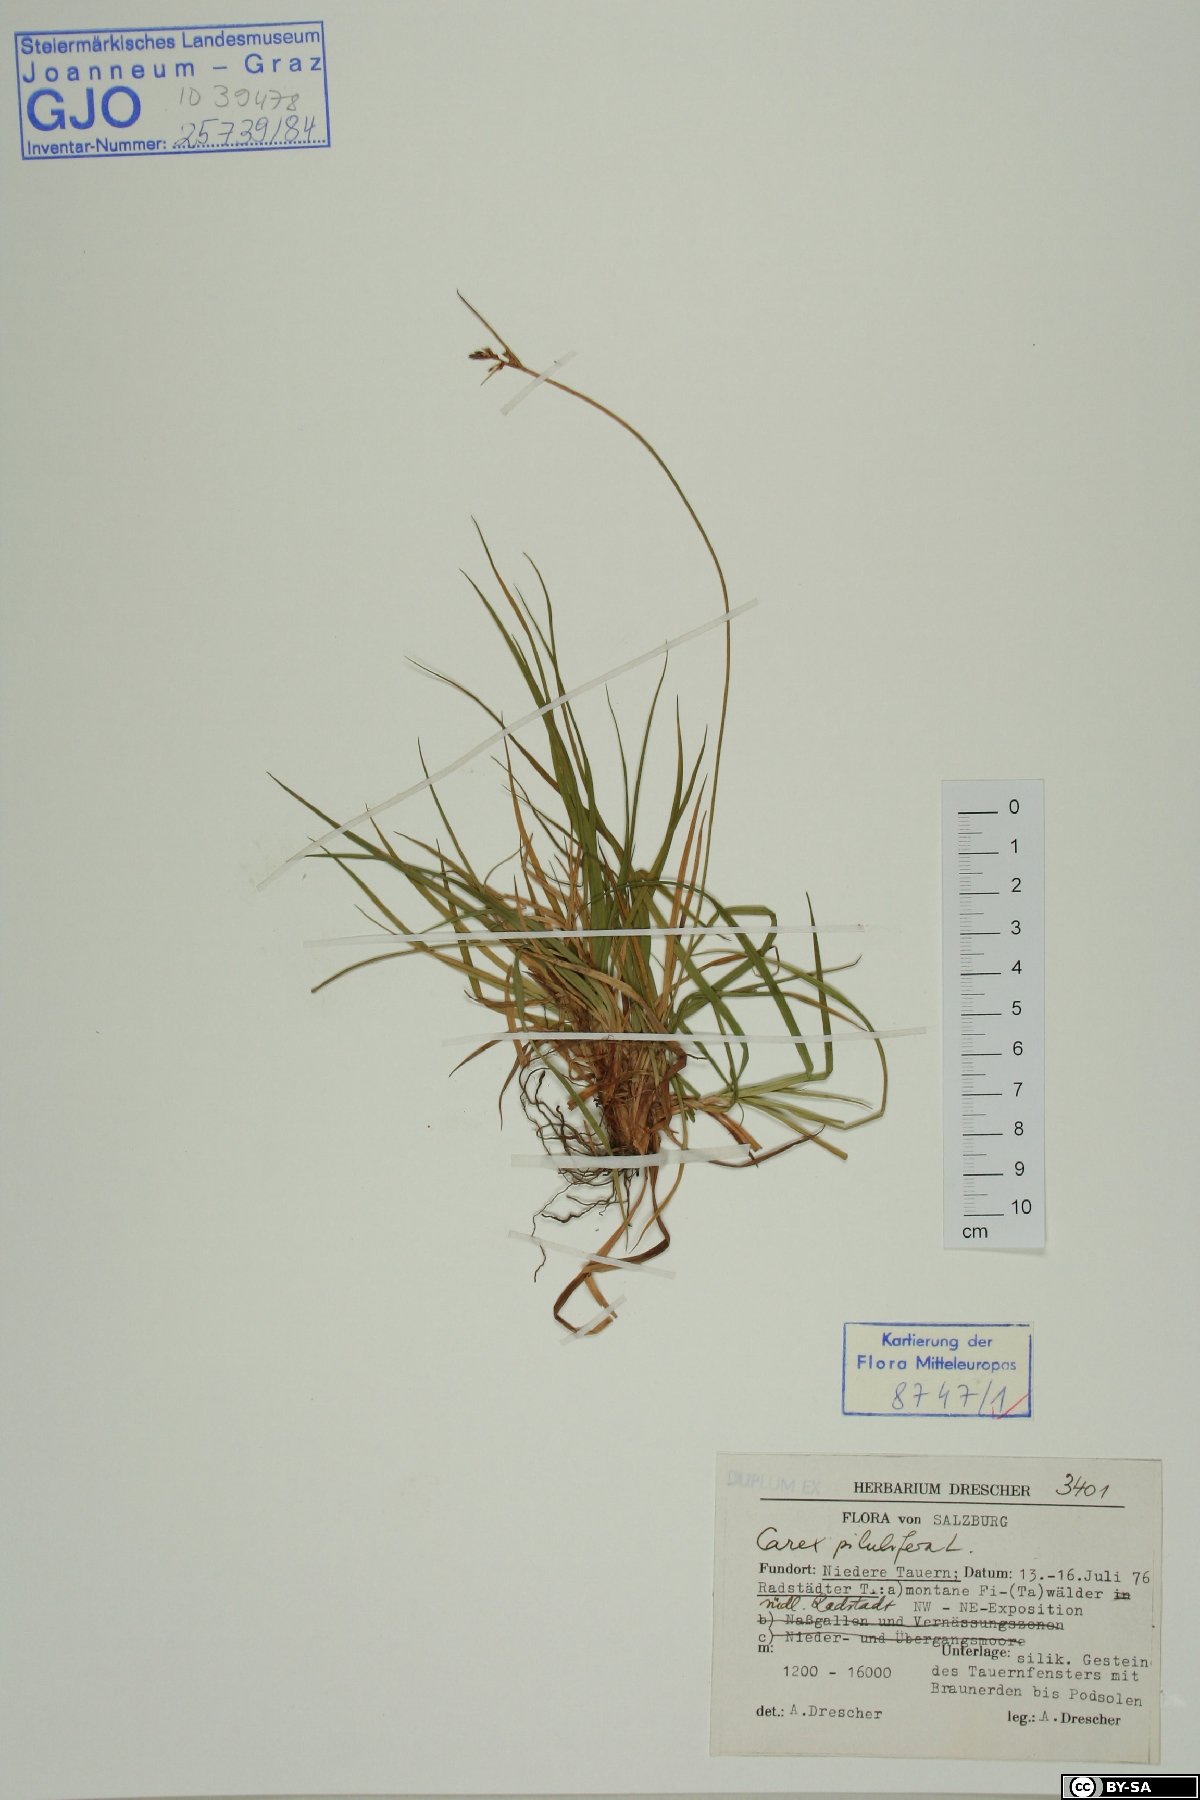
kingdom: Plantae
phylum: Tracheophyta
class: Liliopsida
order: Poales
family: Cyperaceae
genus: Carex
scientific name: Carex pilulifera
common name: Pill sedge
